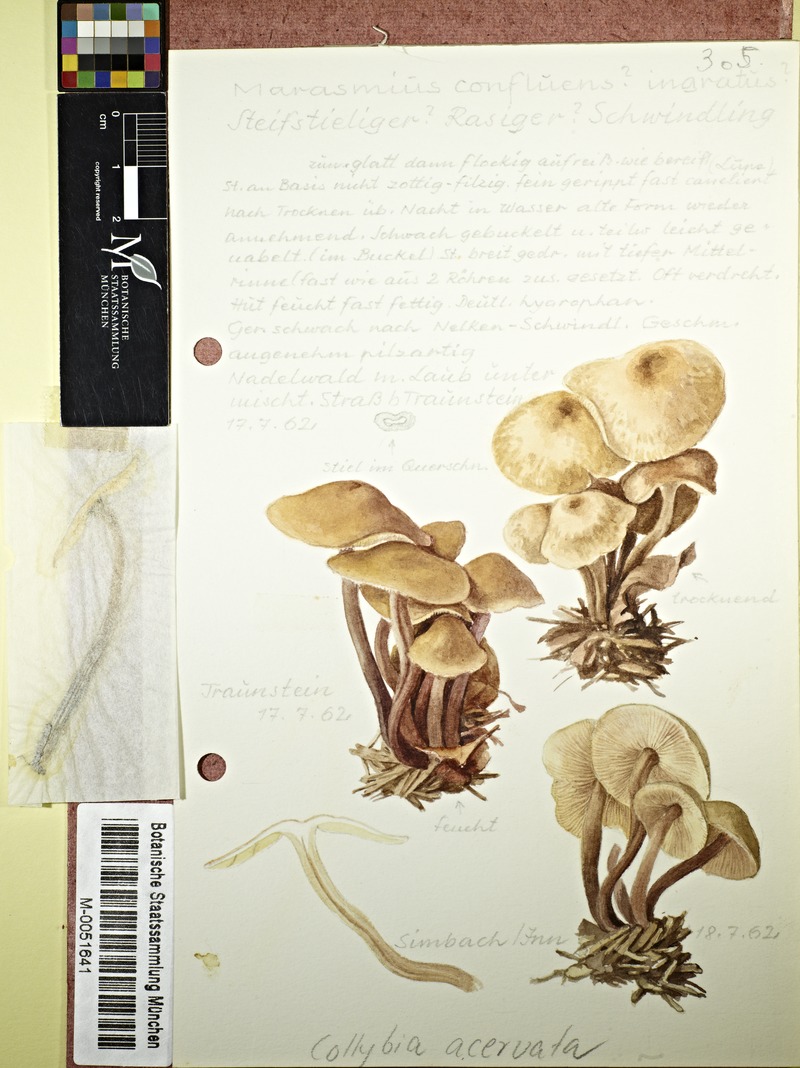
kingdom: Fungi
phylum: Basidiomycota
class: Agaricomycetes
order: Agaricales
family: Omphalotaceae
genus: Connopus
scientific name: Connopus acervatus
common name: Cluster cap
